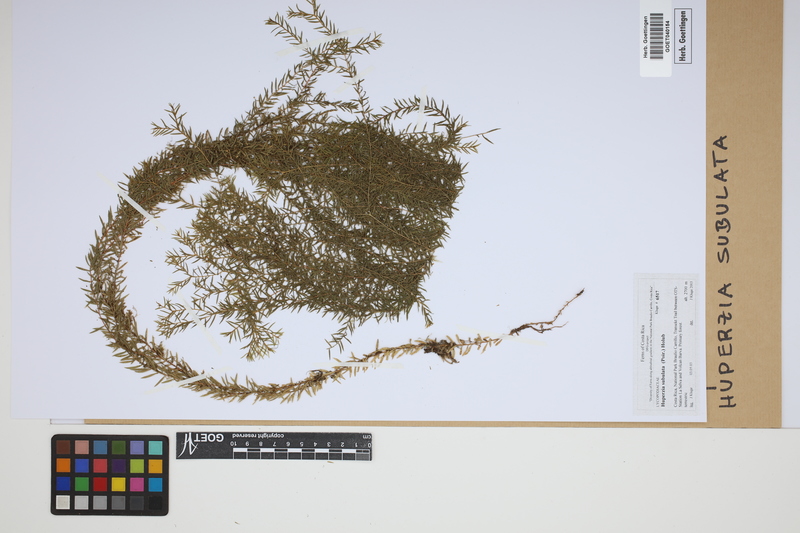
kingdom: Plantae
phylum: Tracheophyta
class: Lycopodiopsida
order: Lycopodiales
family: Lycopodiaceae
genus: Phlegmariurus
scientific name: Phlegmariurus subulatus
